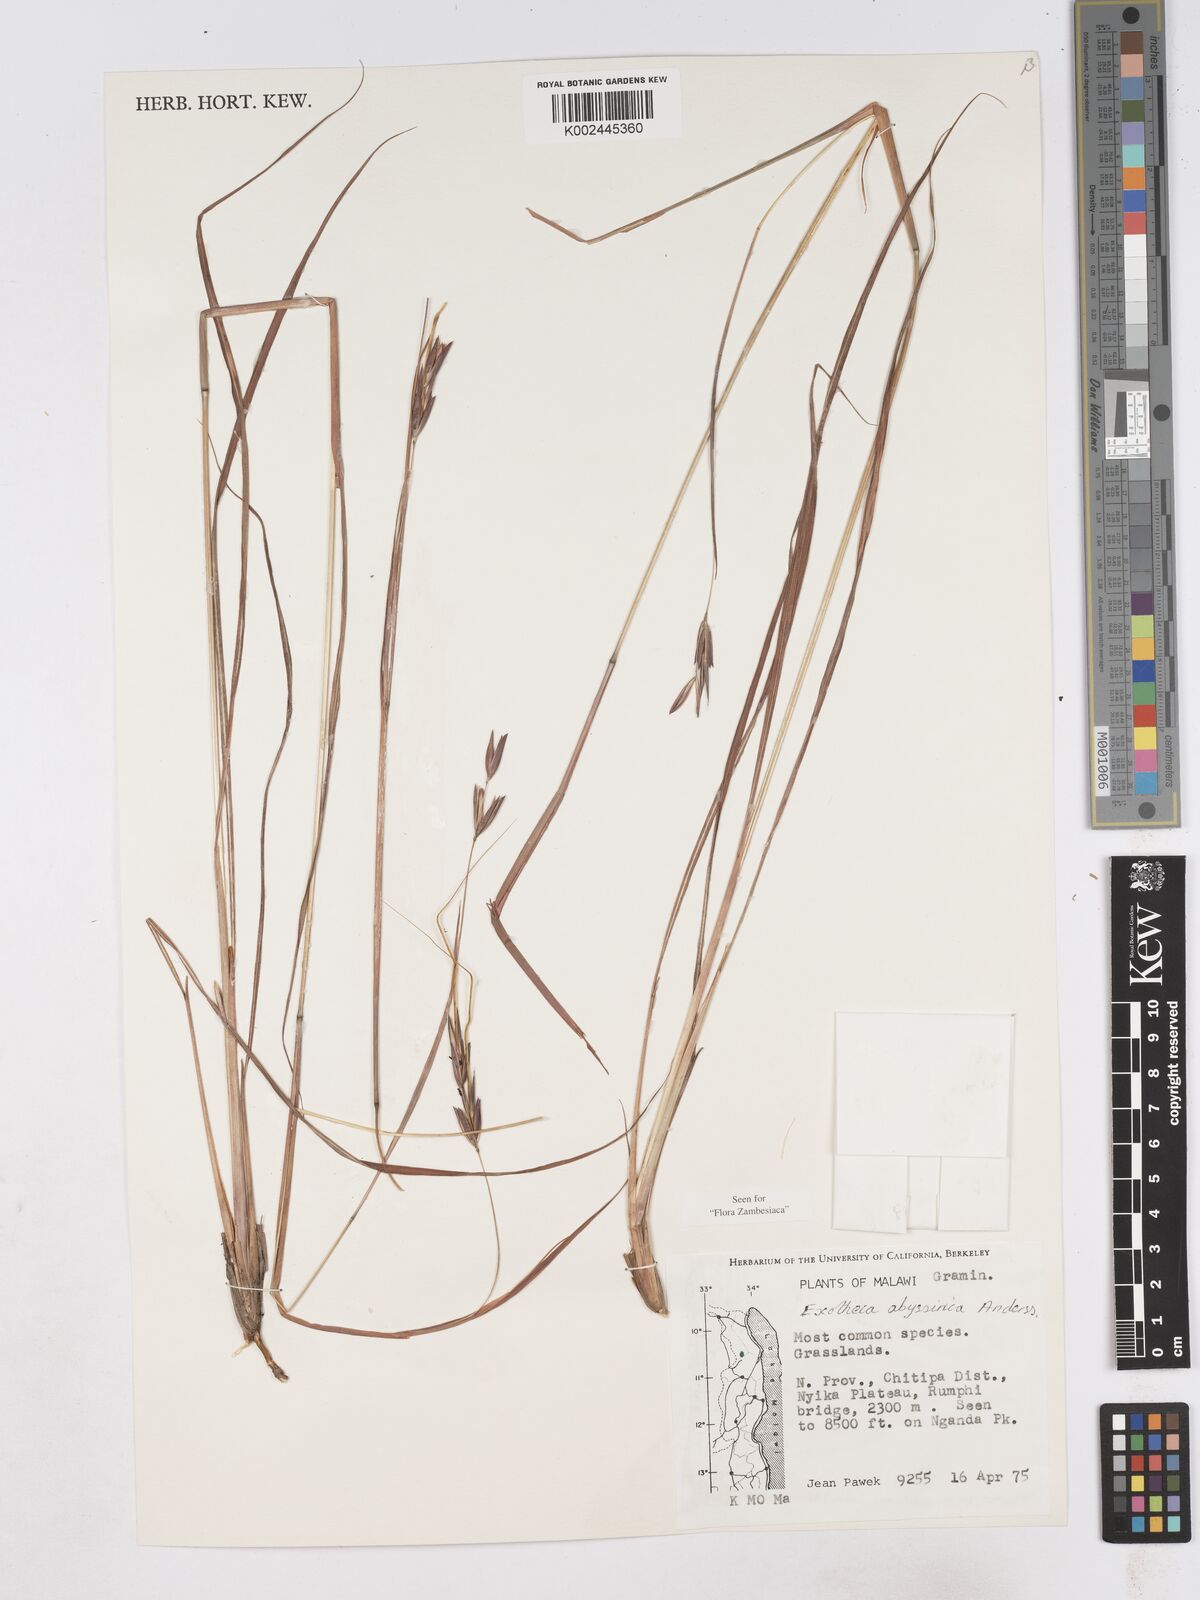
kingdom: Plantae
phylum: Tracheophyta
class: Liliopsida
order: Poales
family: Poaceae
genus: Exotheca
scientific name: Exotheca abyssinica
